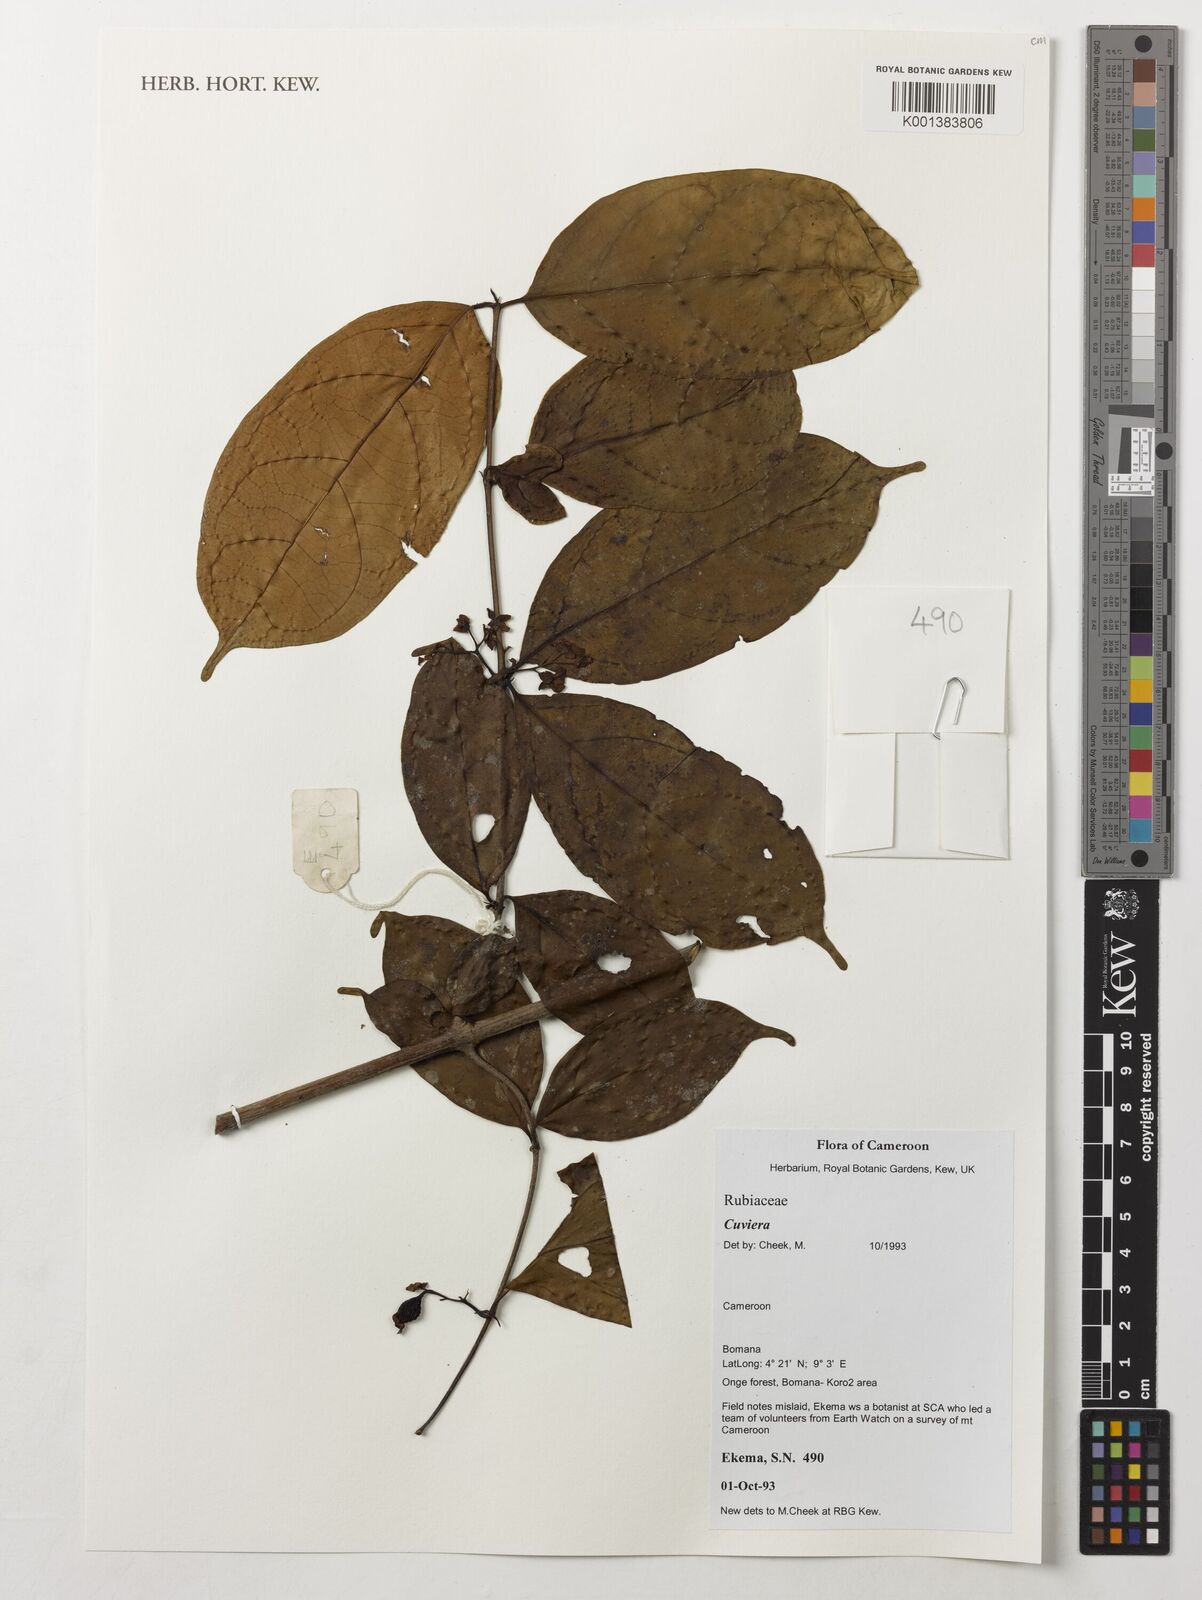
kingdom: Plantae
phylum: Tracheophyta
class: Magnoliopsida
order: Gentianales
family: Rubiaceae
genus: Cuviera
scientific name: Cuviera
